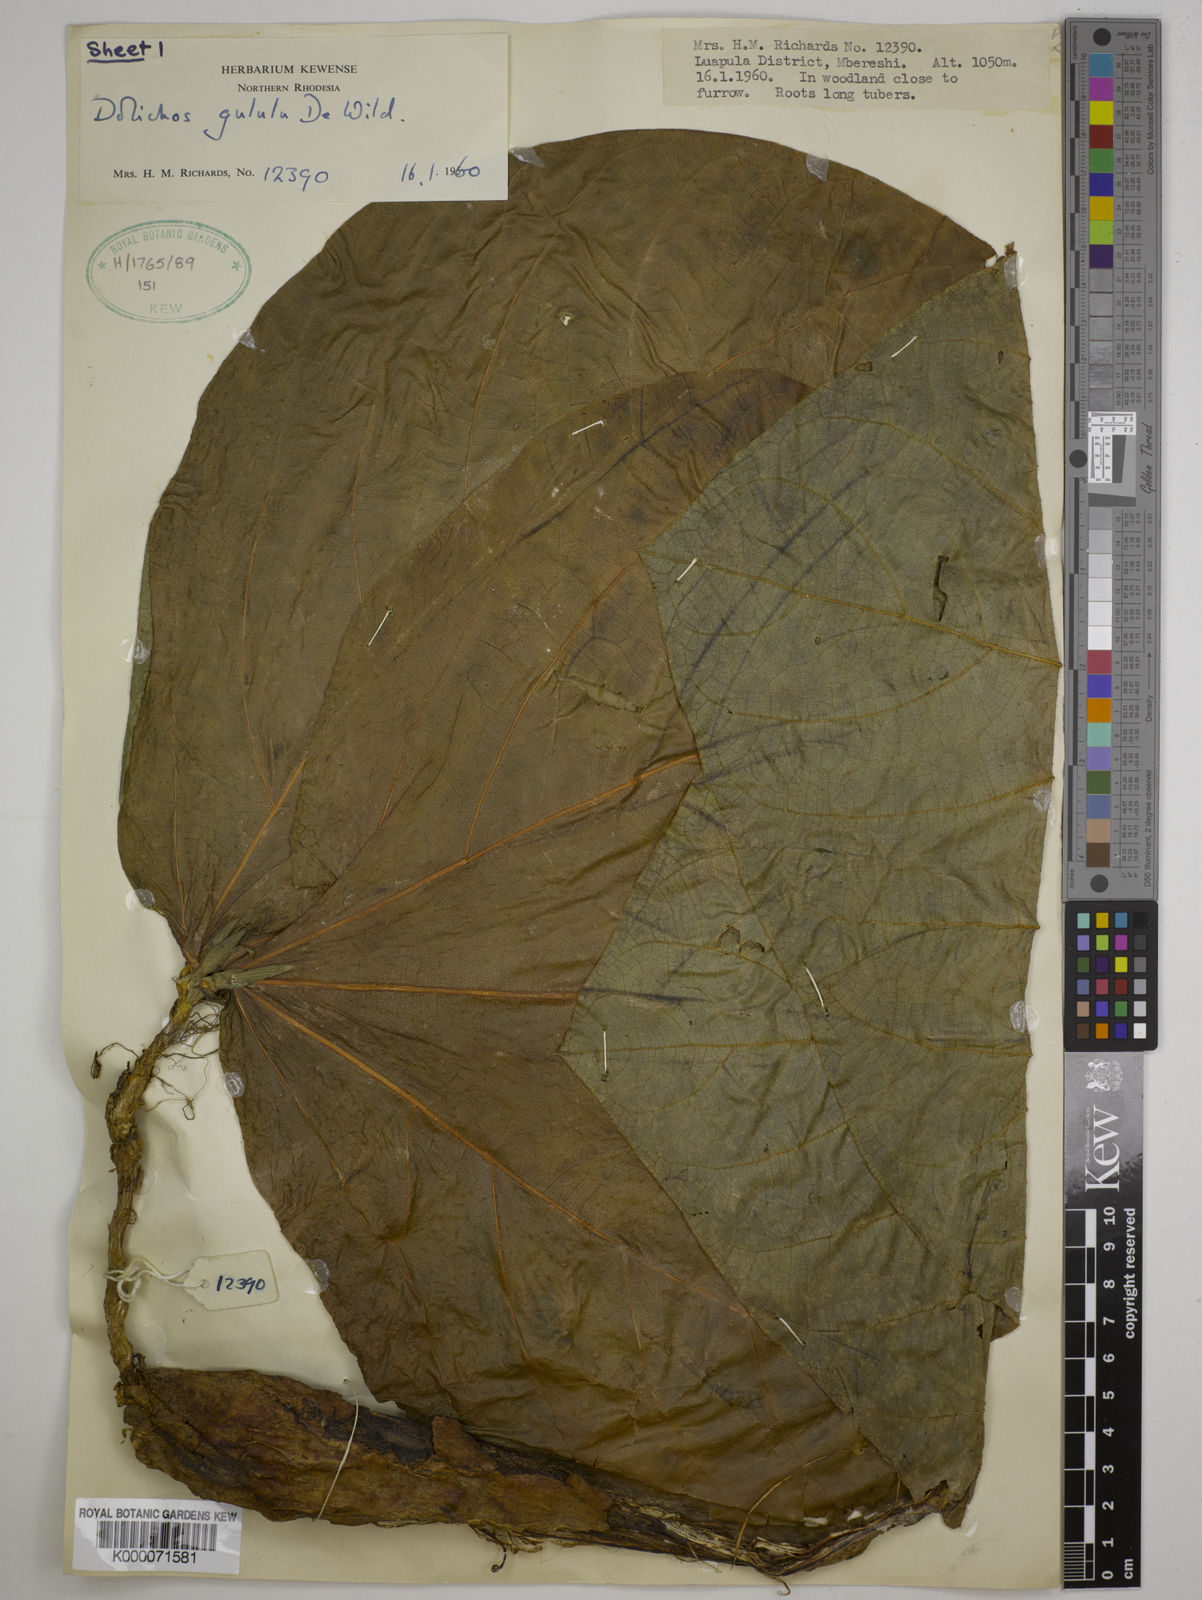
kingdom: Plantae
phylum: Tracheophyta
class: Magnoliopsida
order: Fabales
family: Fabaceae
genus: Dolichos
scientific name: Dolichos gululu
